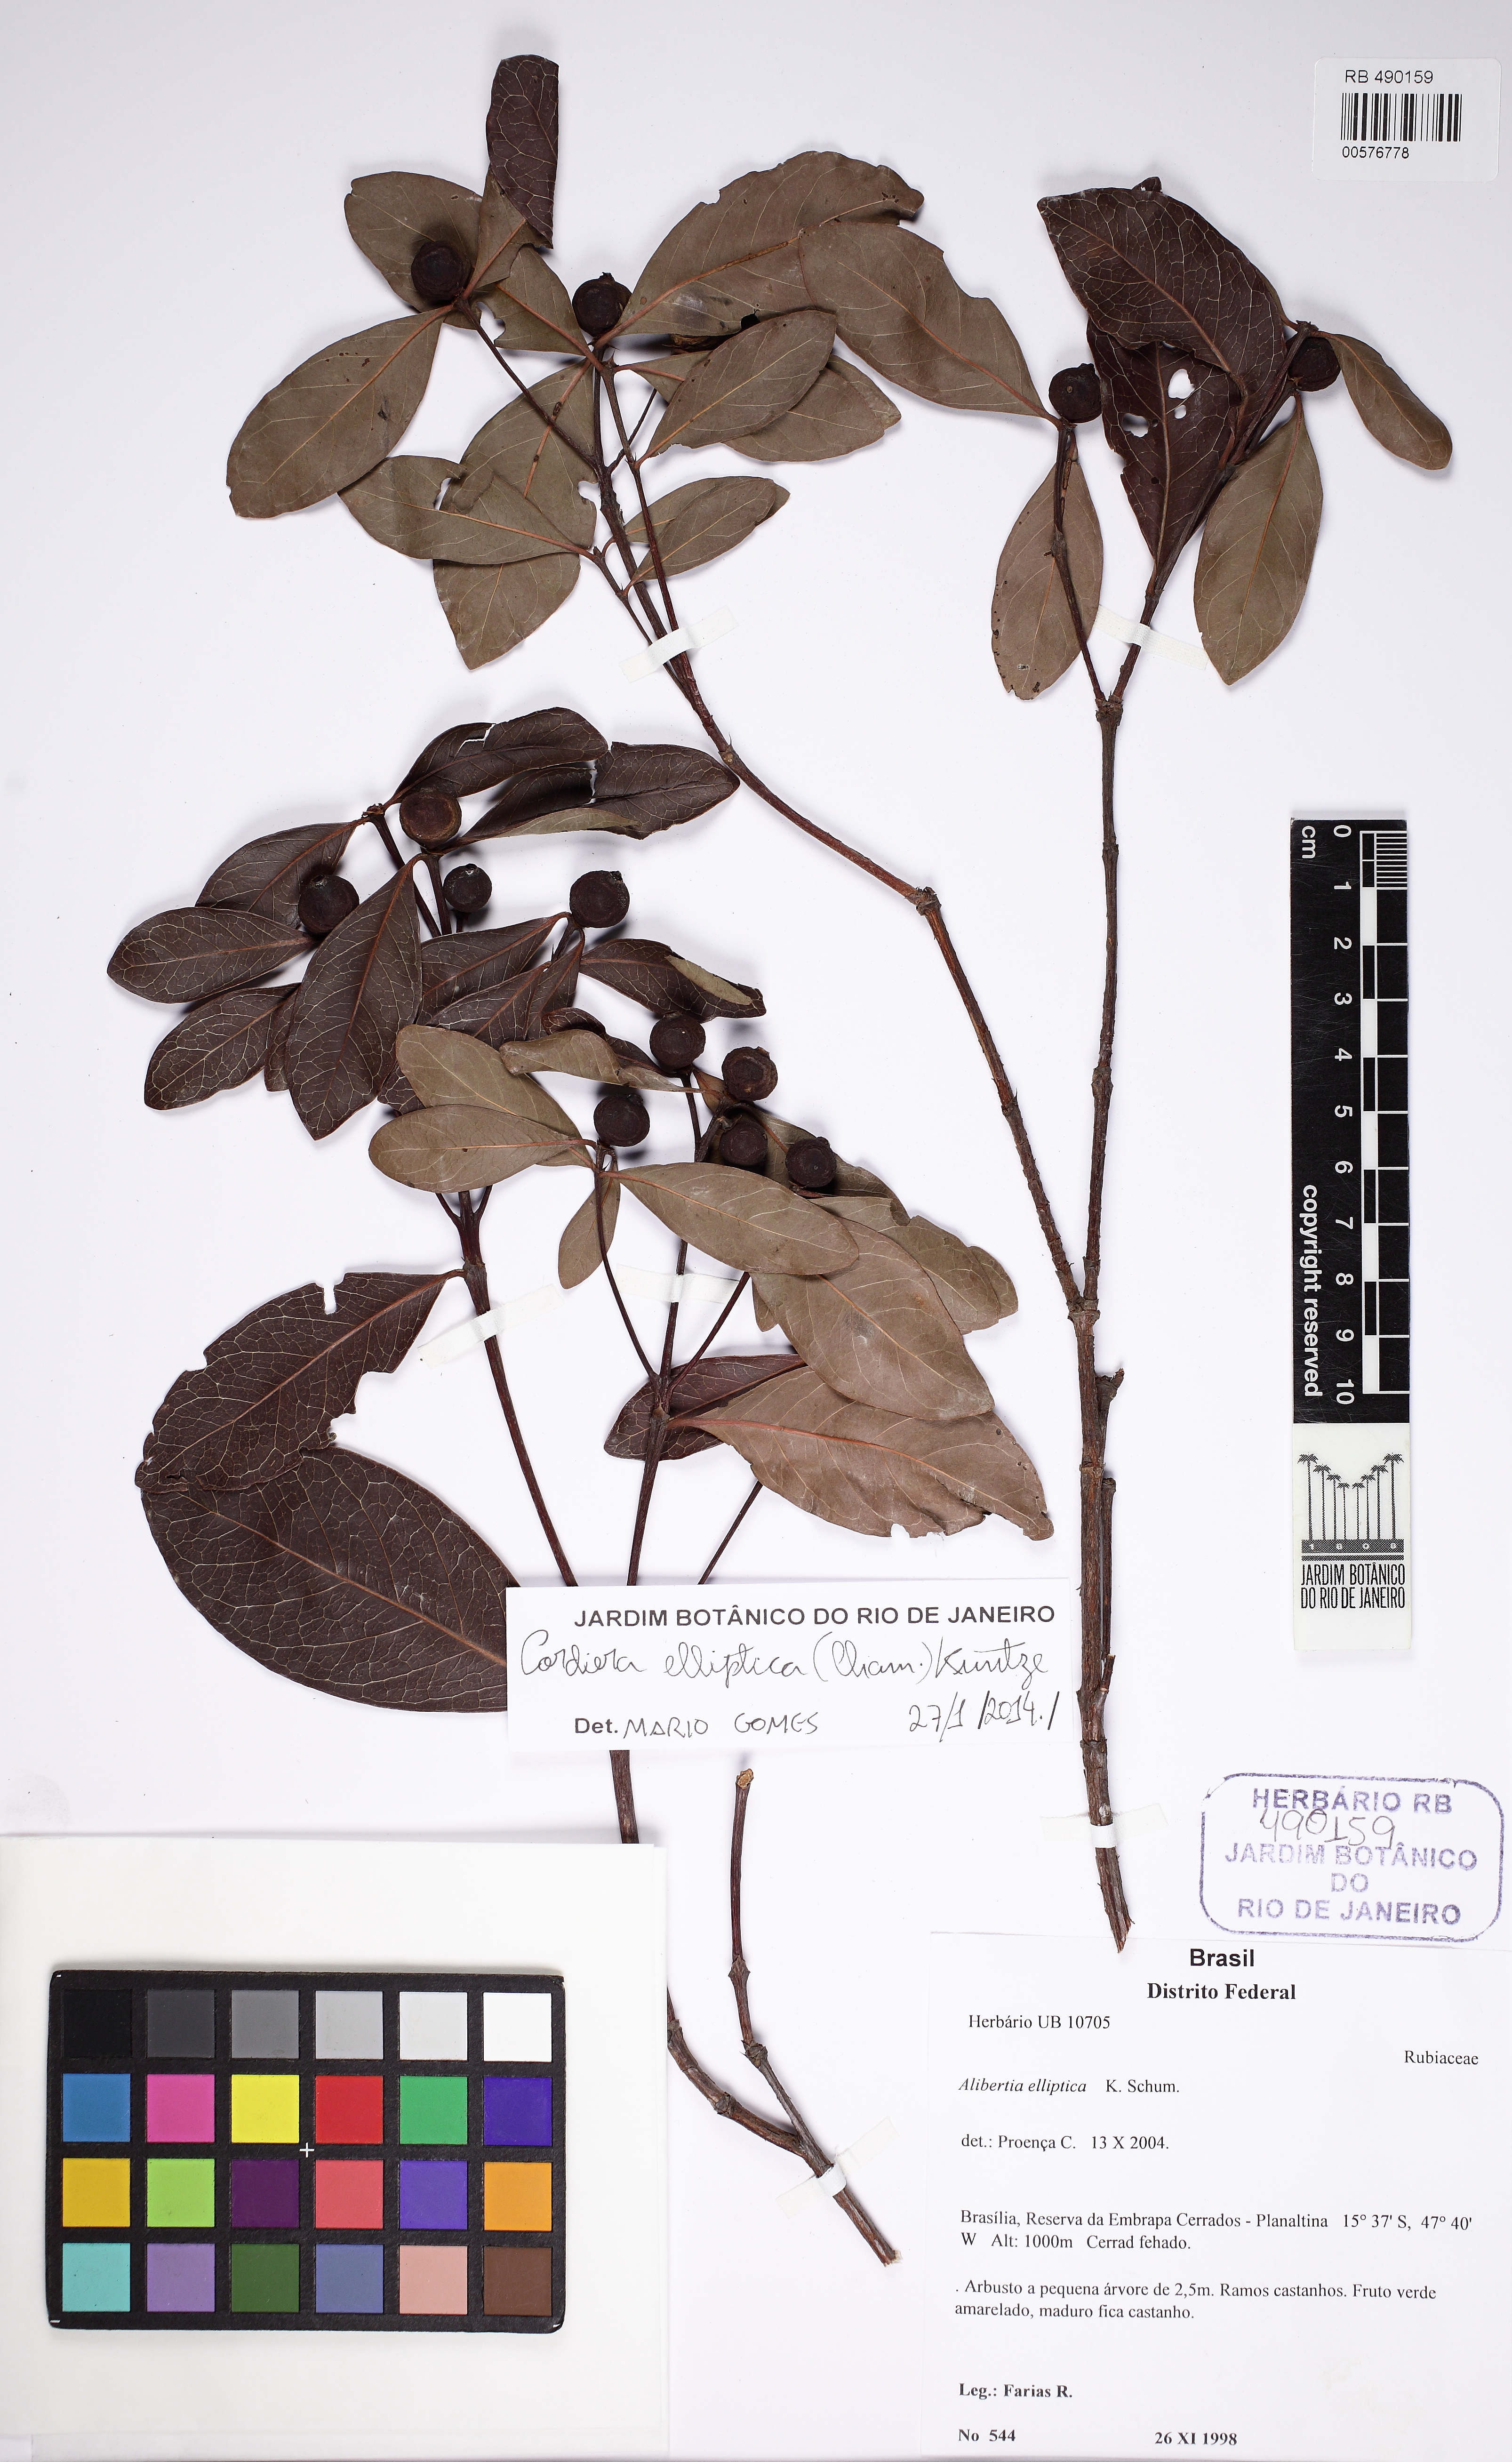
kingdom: Plantae
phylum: Tracheophyta
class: Magnoliopsida
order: Gentianales
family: Rubiaceae
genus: Cordiera
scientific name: Cordiera elliptica
